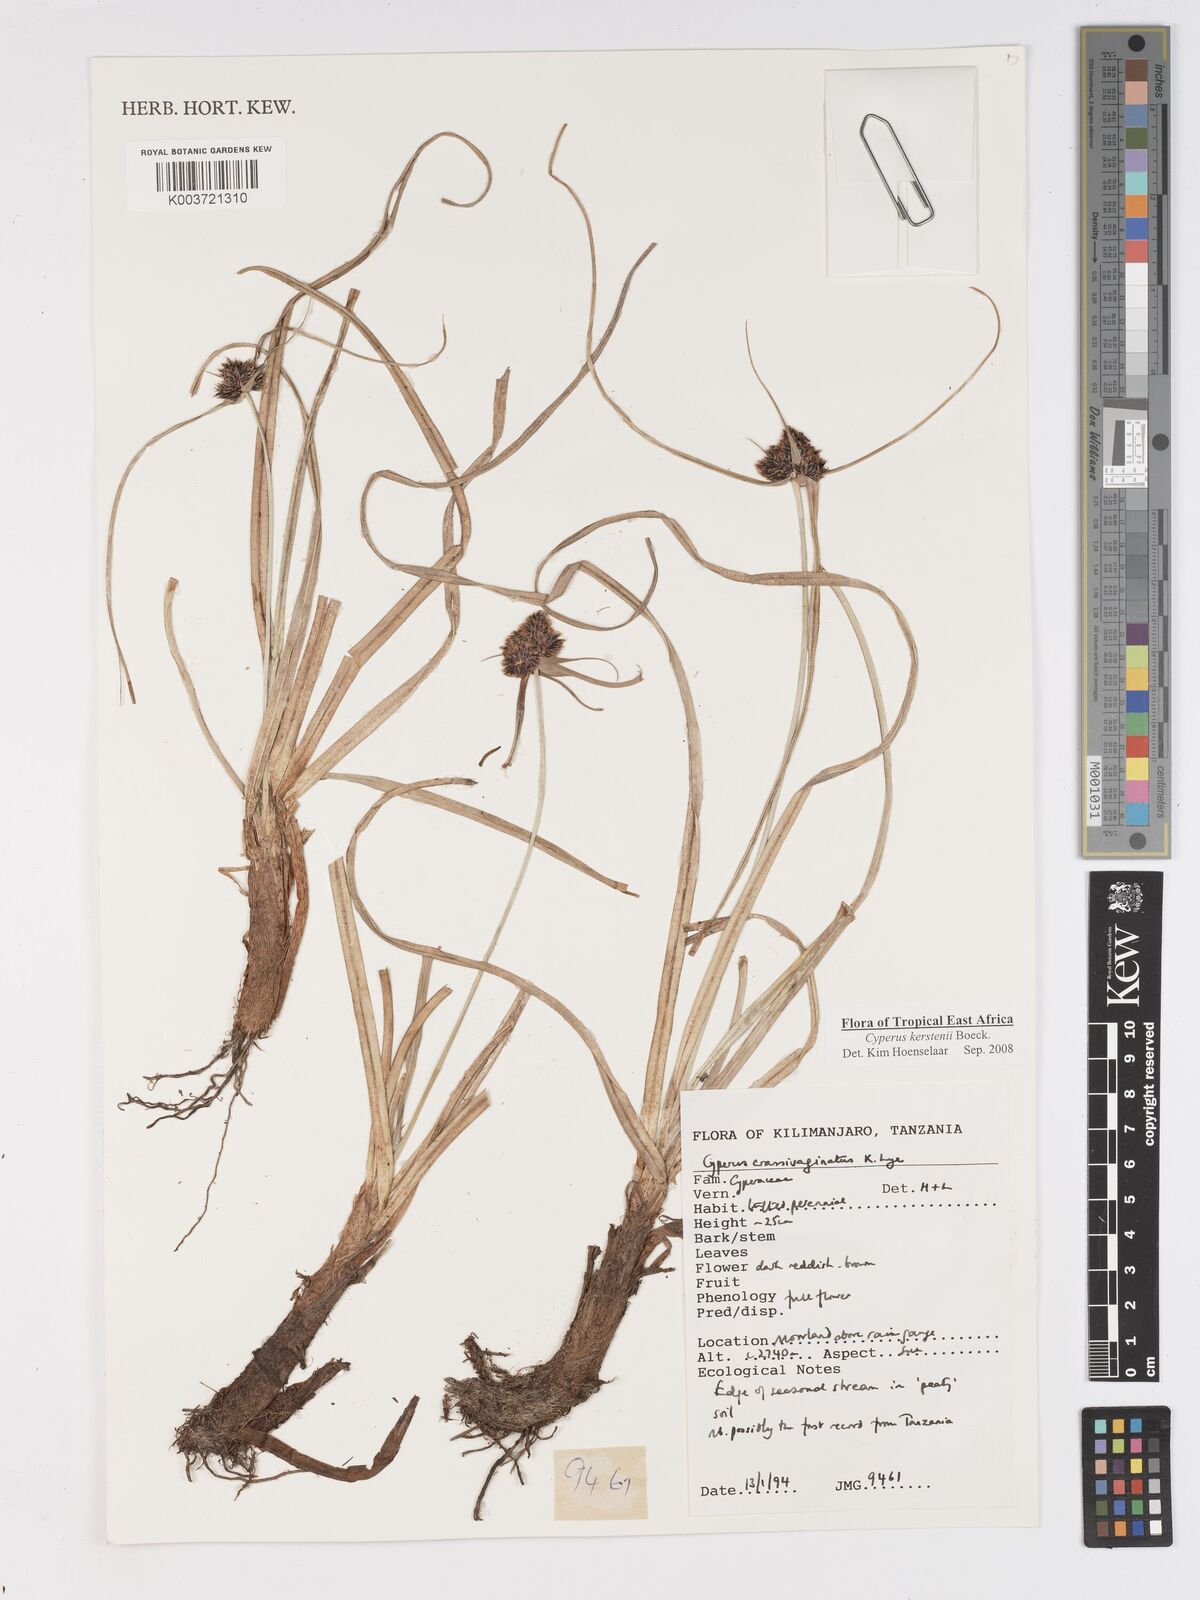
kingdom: Plantae
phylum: Tracheophyta
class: Liliopsida
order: Poales
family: Cyperaceae
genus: Cyperus
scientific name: Cyperus plateilema
